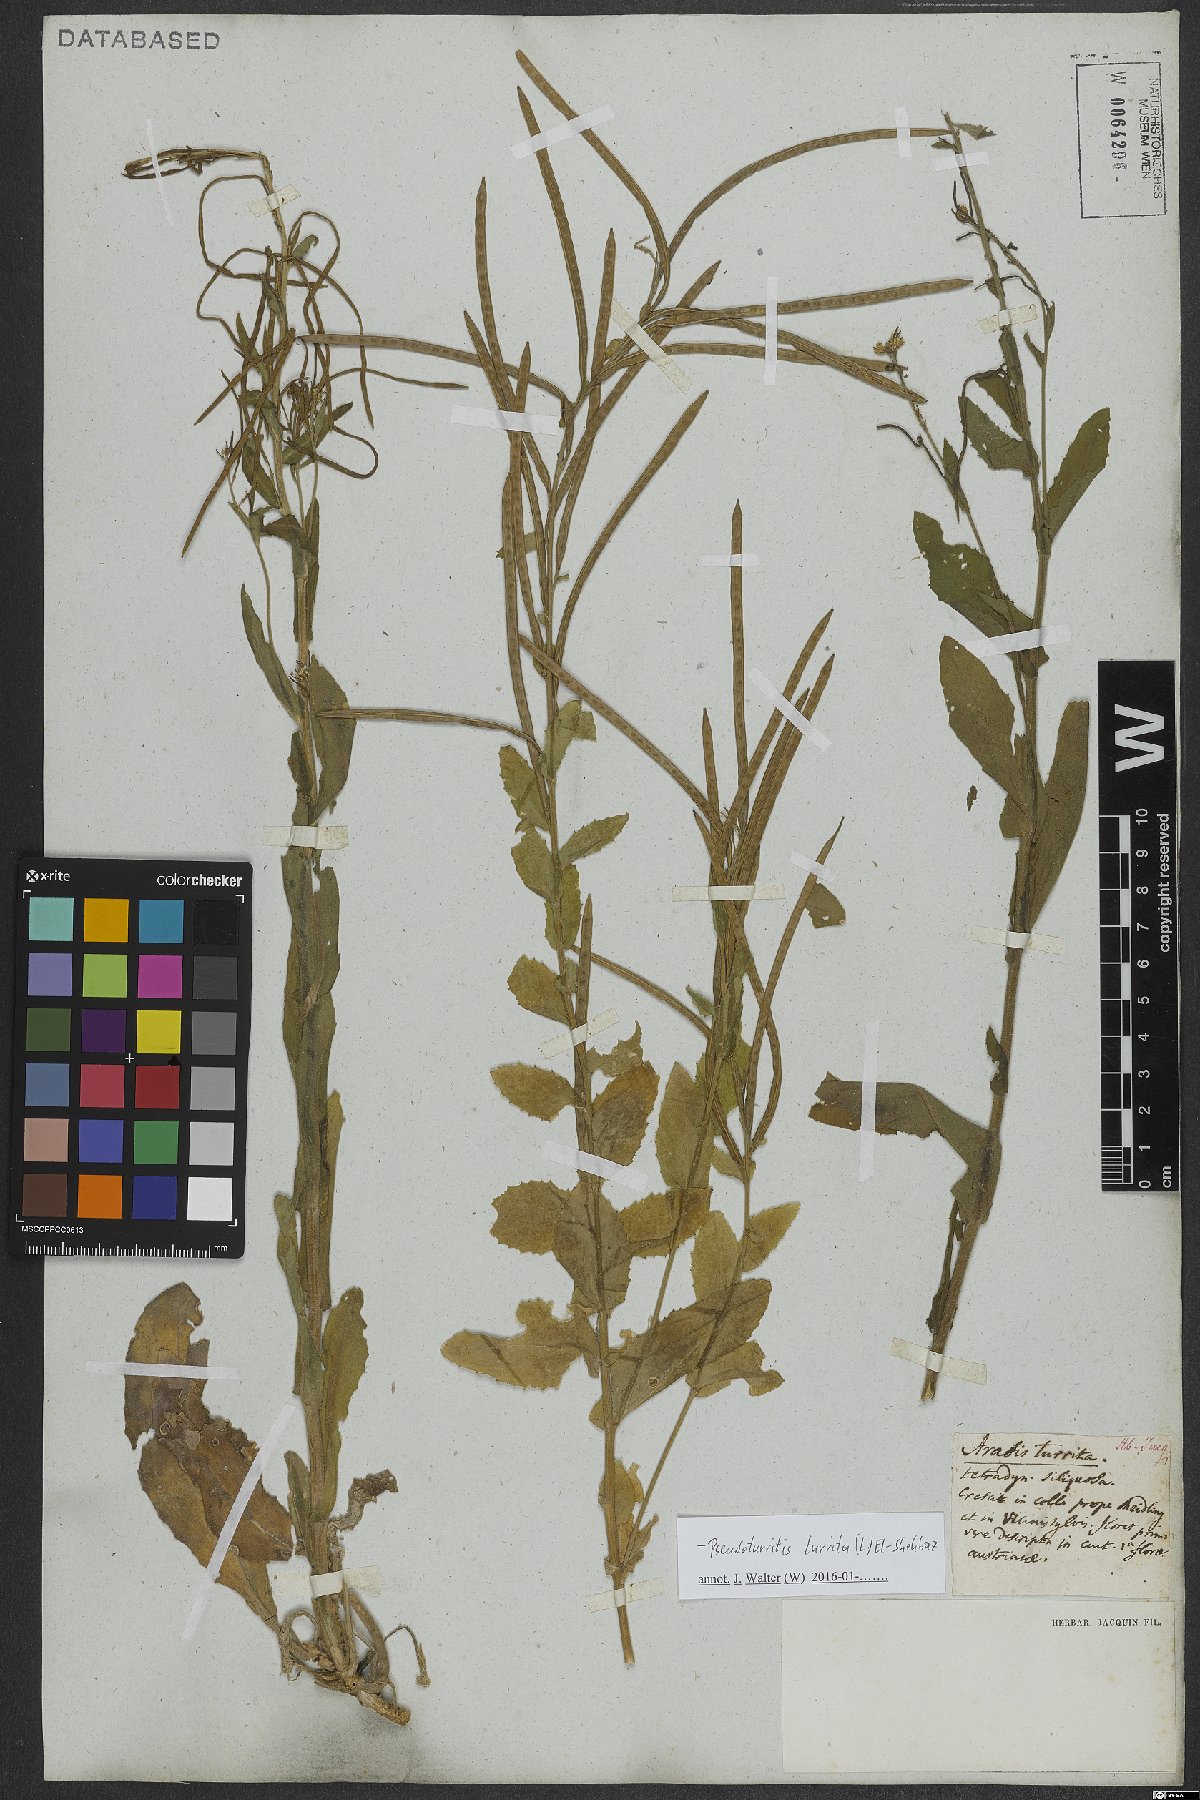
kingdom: Plantae
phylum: Tracheophyta
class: Magnoliopsida
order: Brassicales
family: Brassicaceae
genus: Pseudoturritis
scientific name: Pseudoturritis turrita
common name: Tower cress
